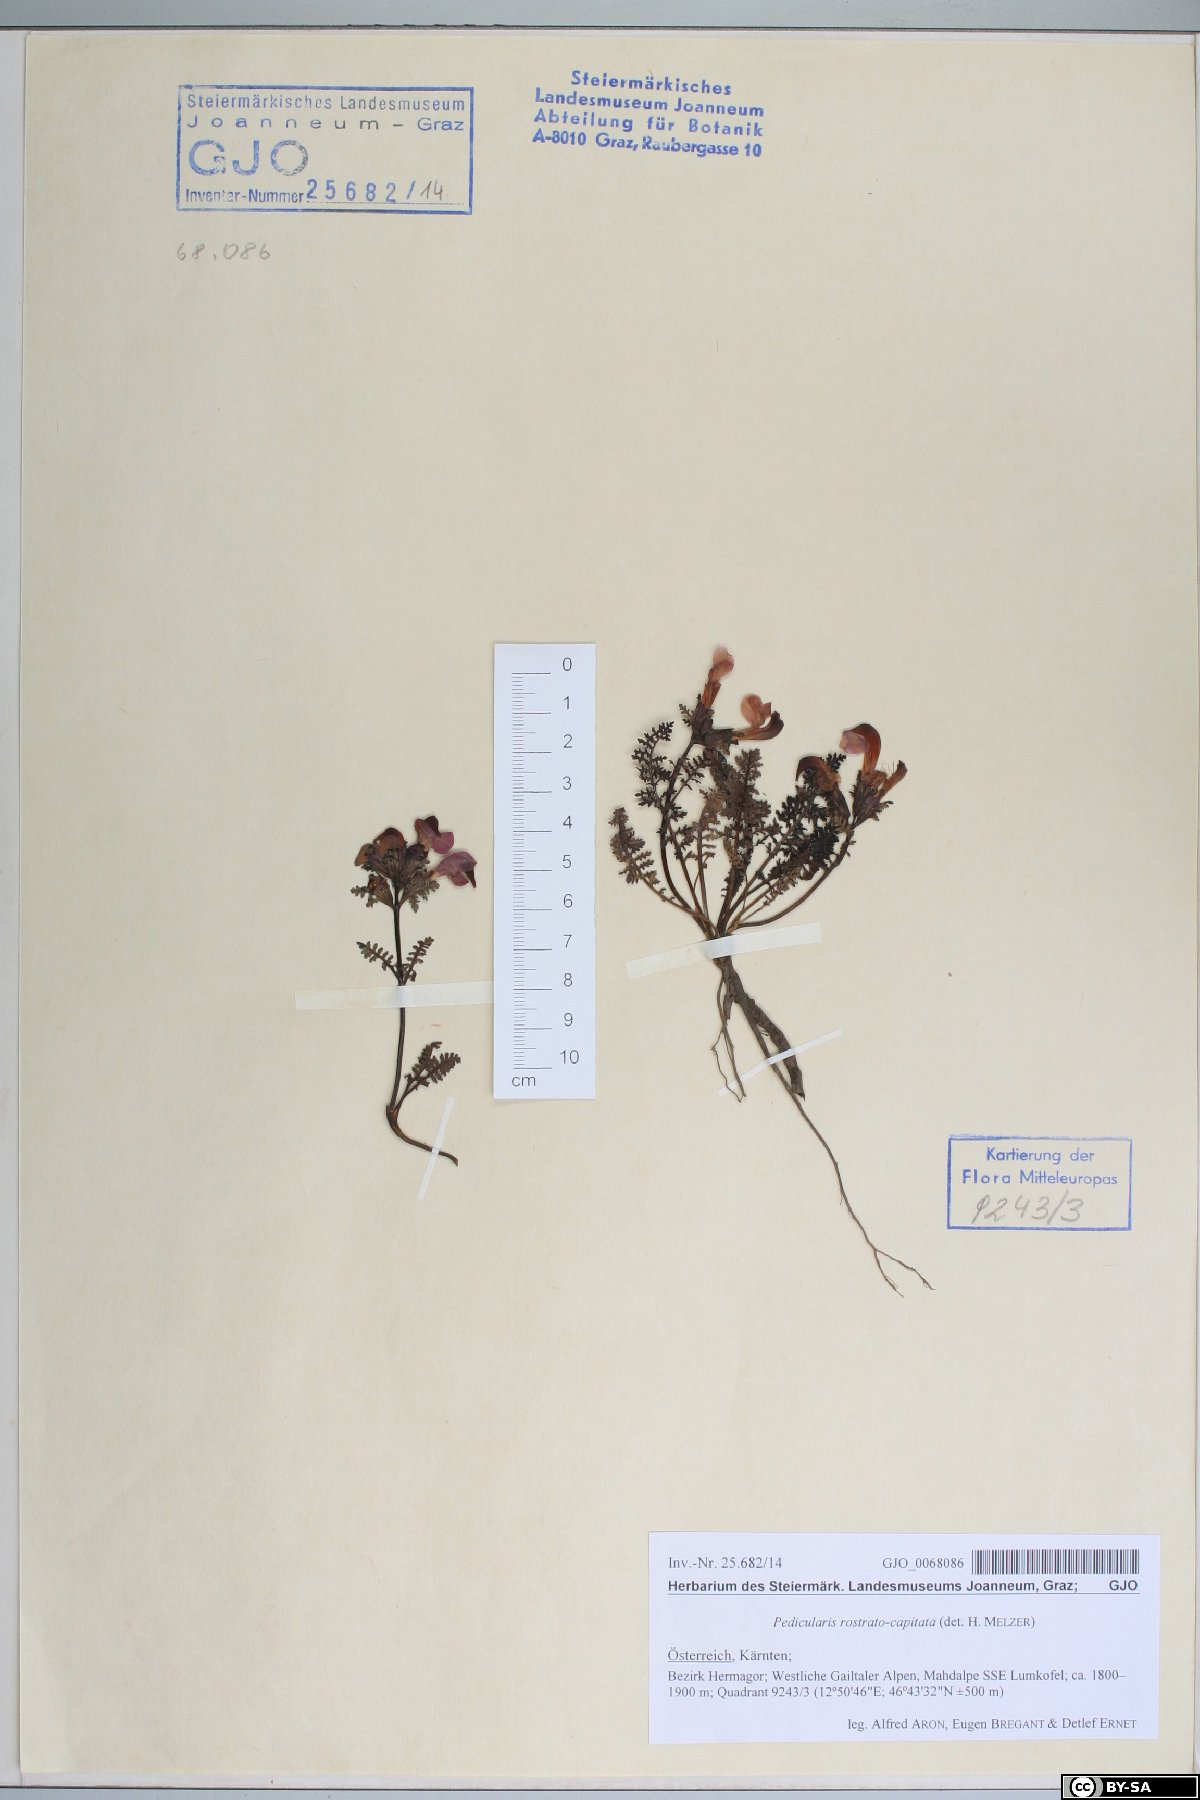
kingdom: Plantae
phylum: Tracheophyta
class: Magnoliopsida
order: Lamiales
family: Orobanchaceae
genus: Pedicularis
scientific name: Pedicularis rostratocapitata
